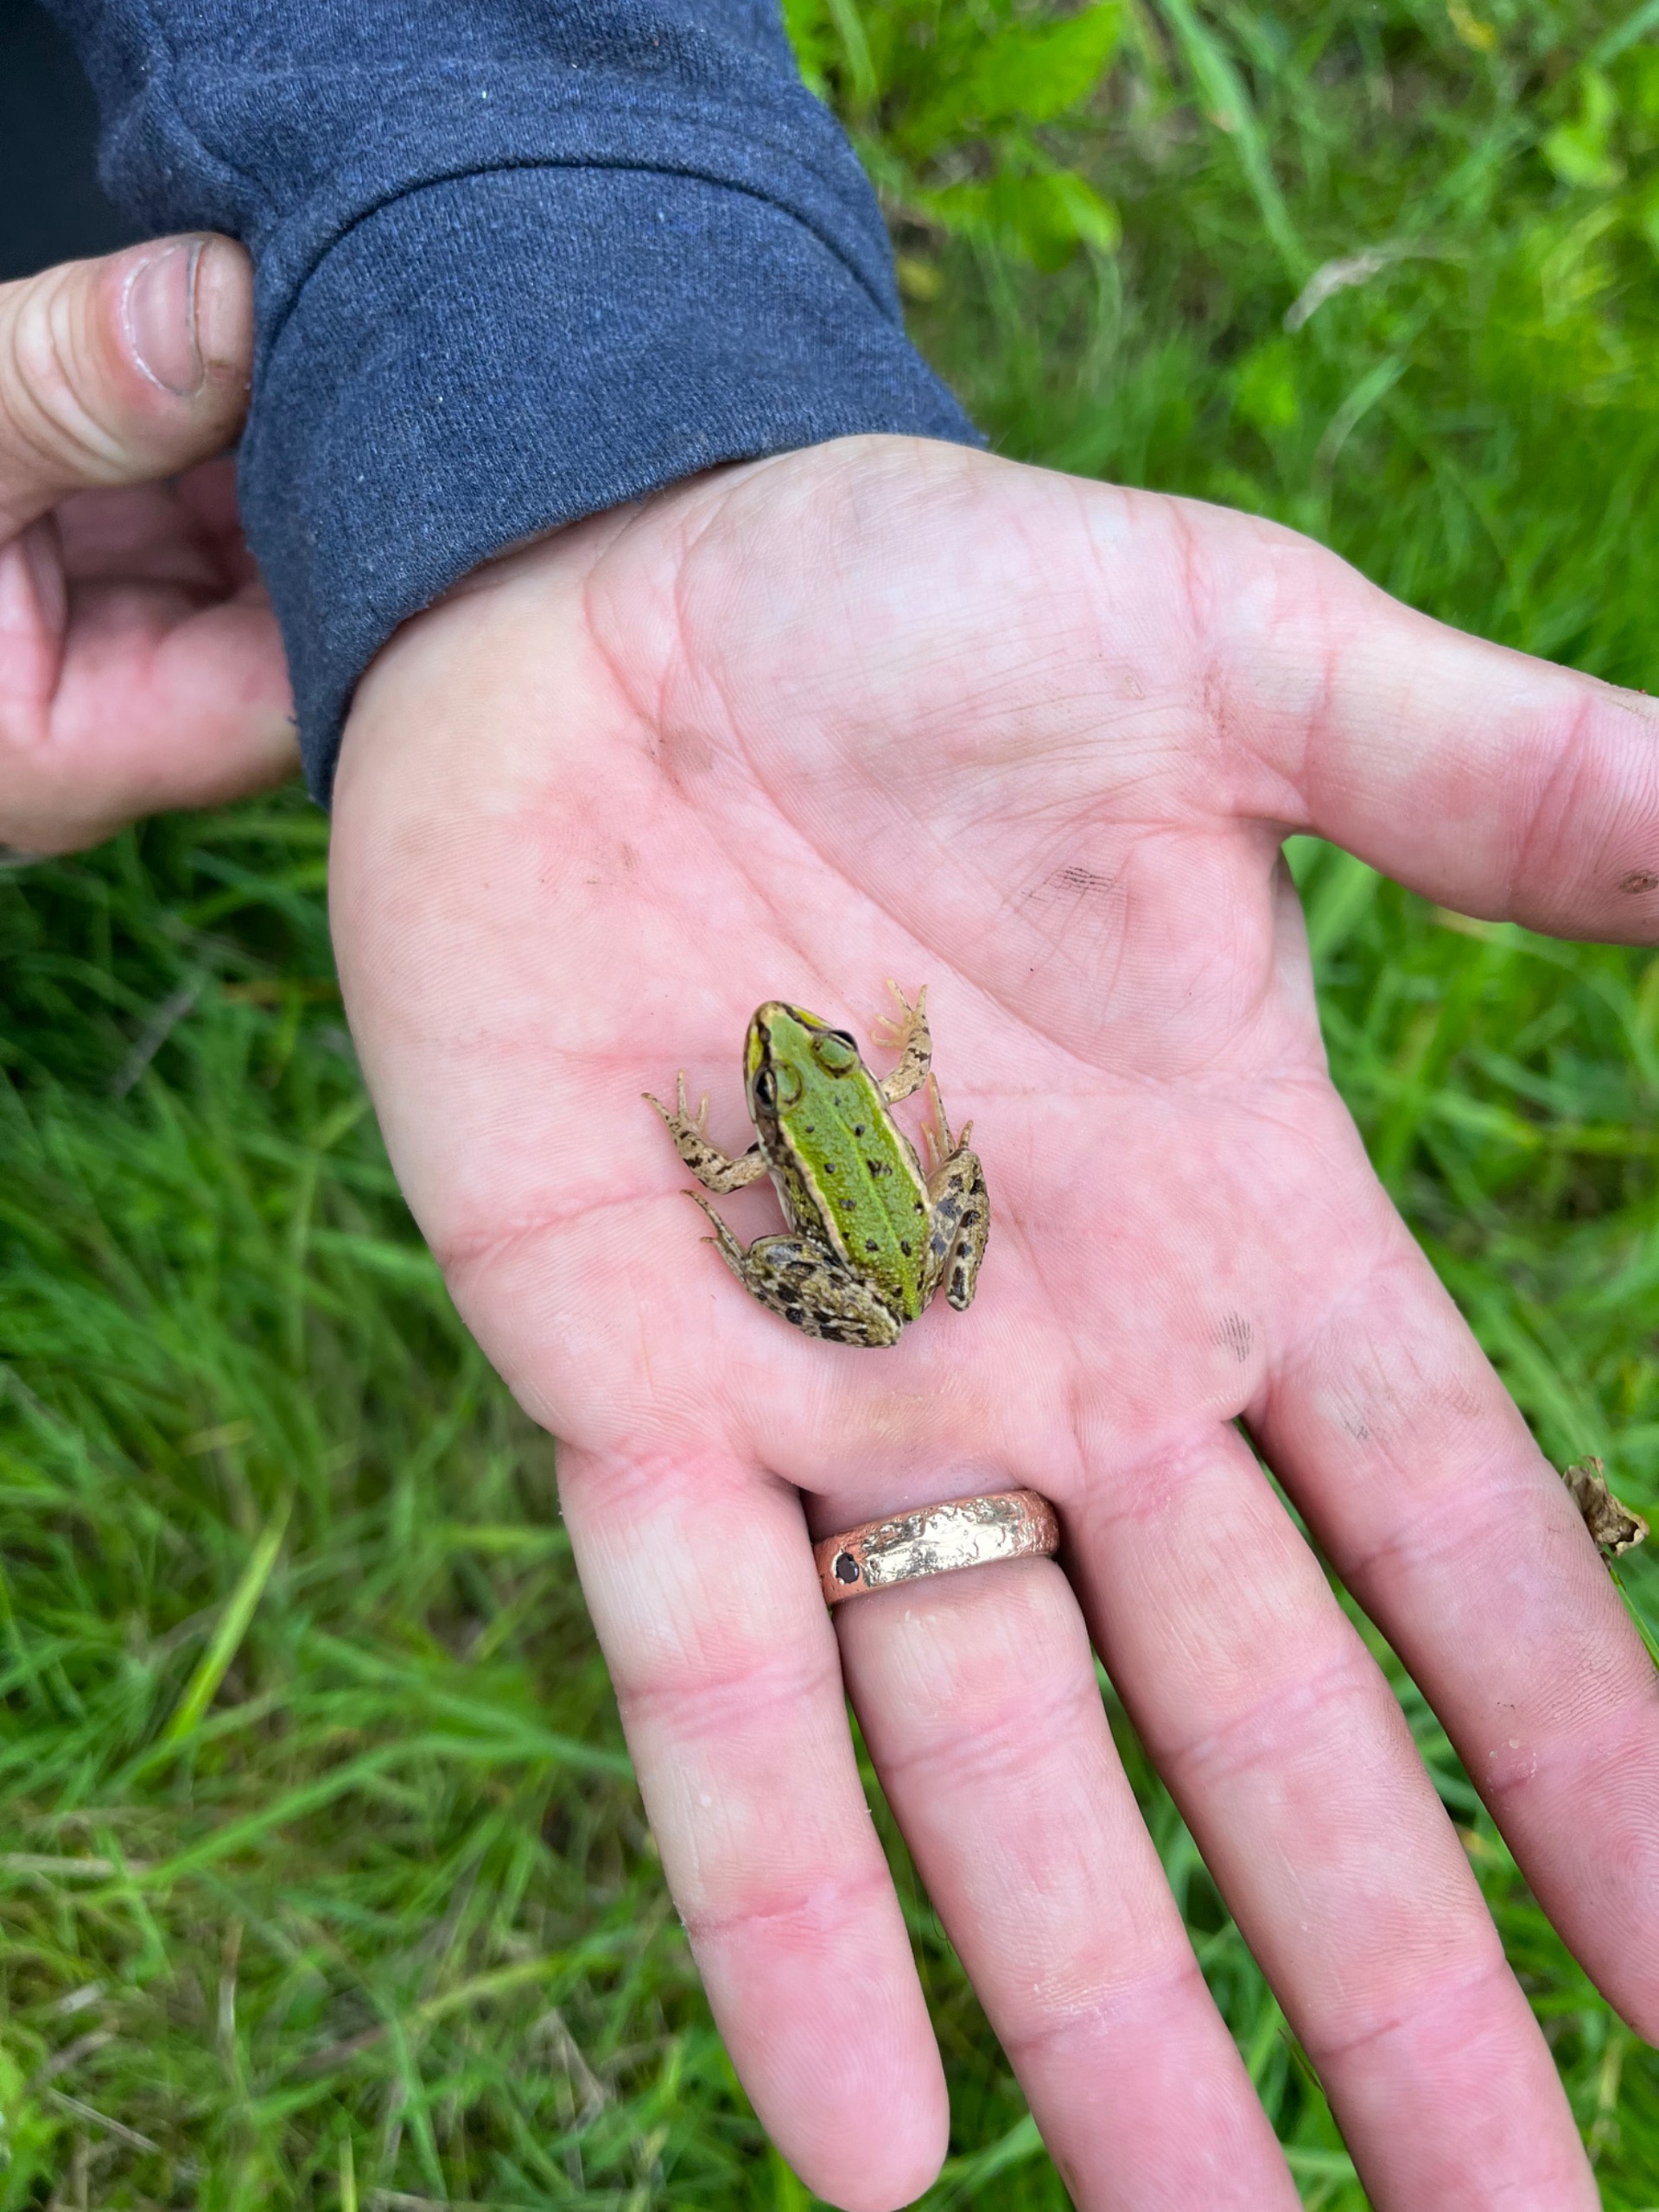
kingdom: Animalia
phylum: Chordata
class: Amphibia
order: Anura
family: Ranidae
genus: Pelophylax
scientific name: Pelophylax lessonae
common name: Grøn frø
